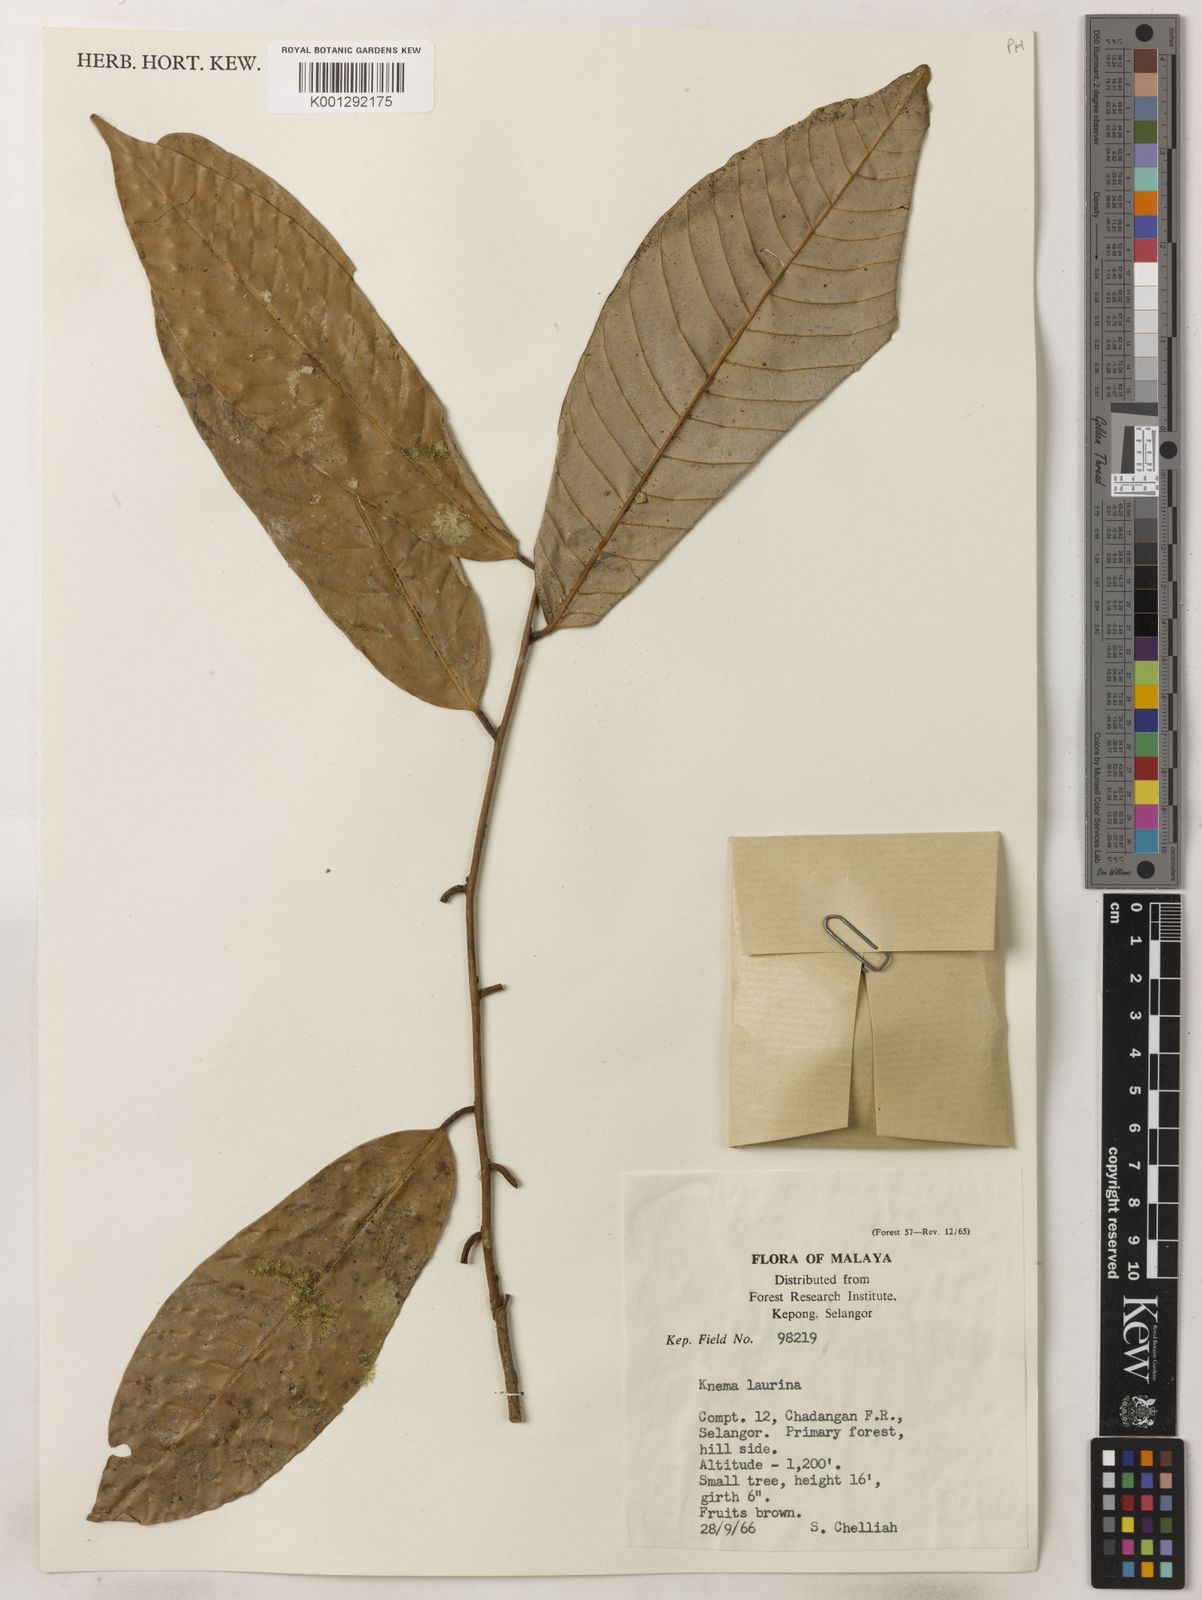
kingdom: Plantae
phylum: Tracheophyta
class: Magnoliopsida
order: Magnoliales
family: Myristicaceae
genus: Knema
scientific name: Knema laurina
